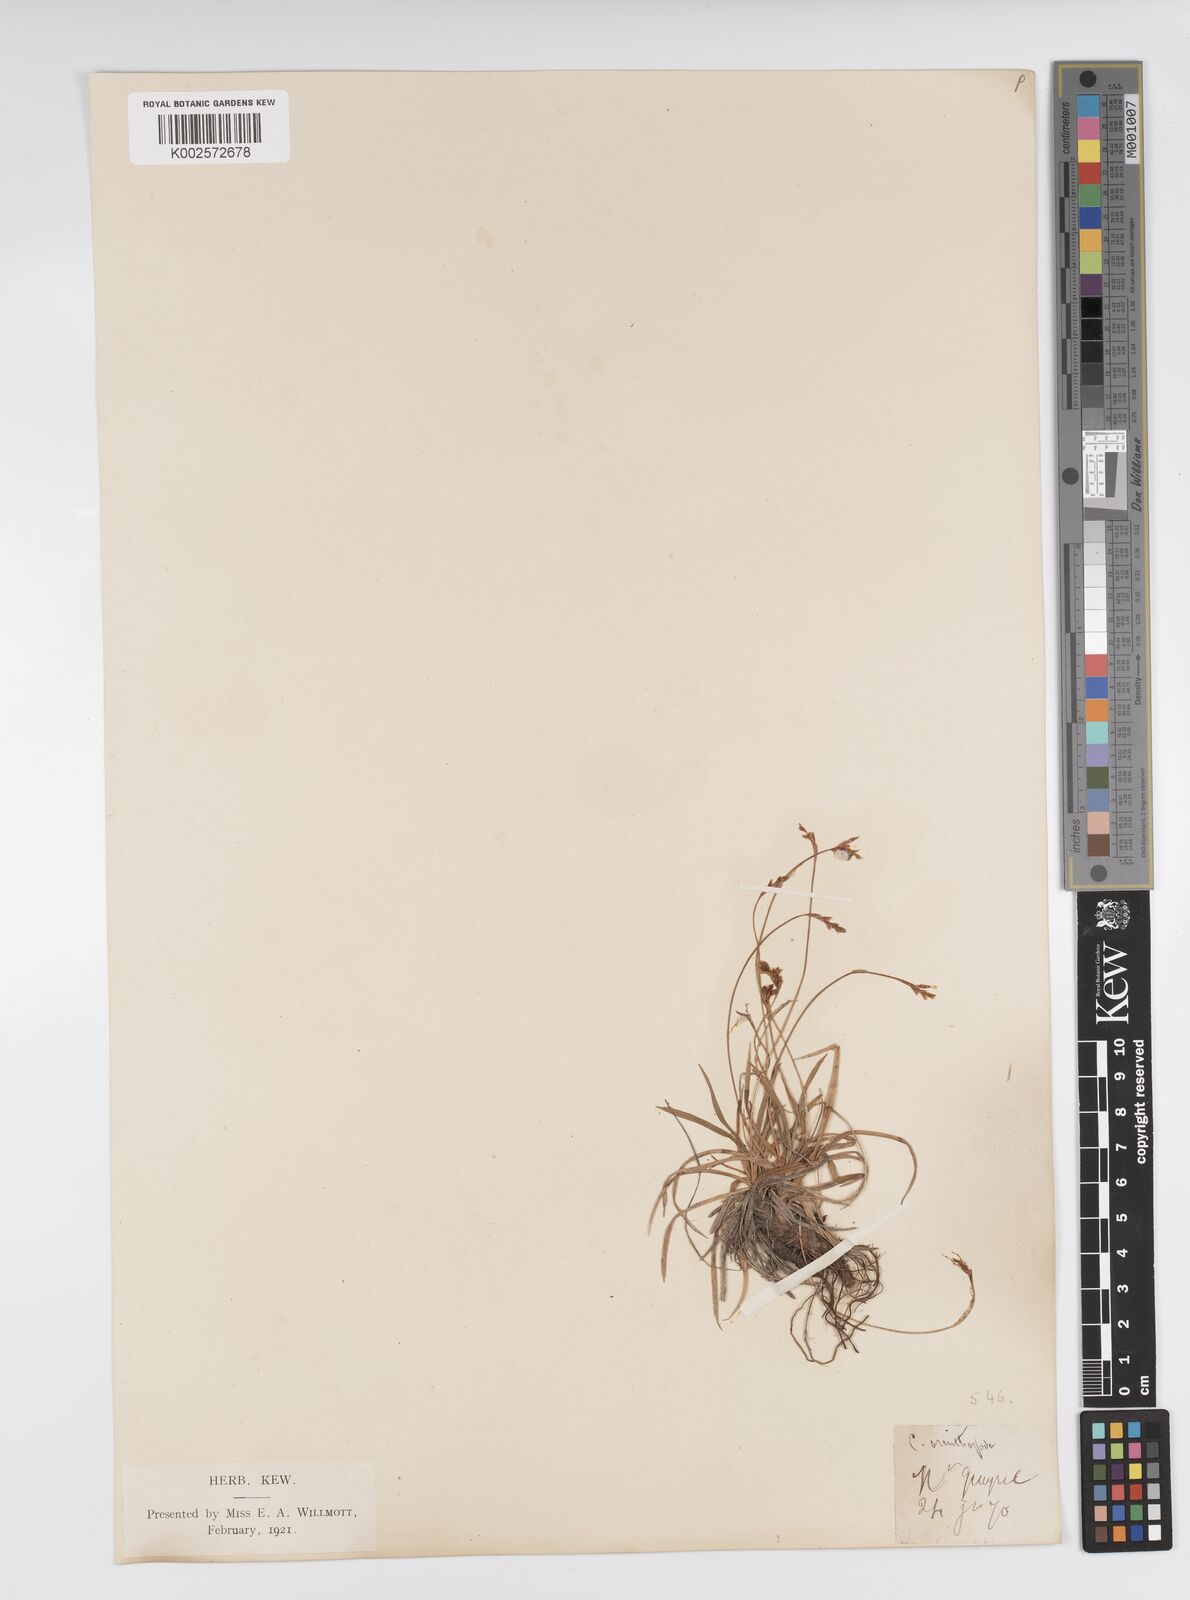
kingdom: Plantae
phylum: Tracheophyta
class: Liliopsida
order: Poales
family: Cyperaceae
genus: Carex
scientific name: Carex ornithopoda
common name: Bird's-foot sedge
